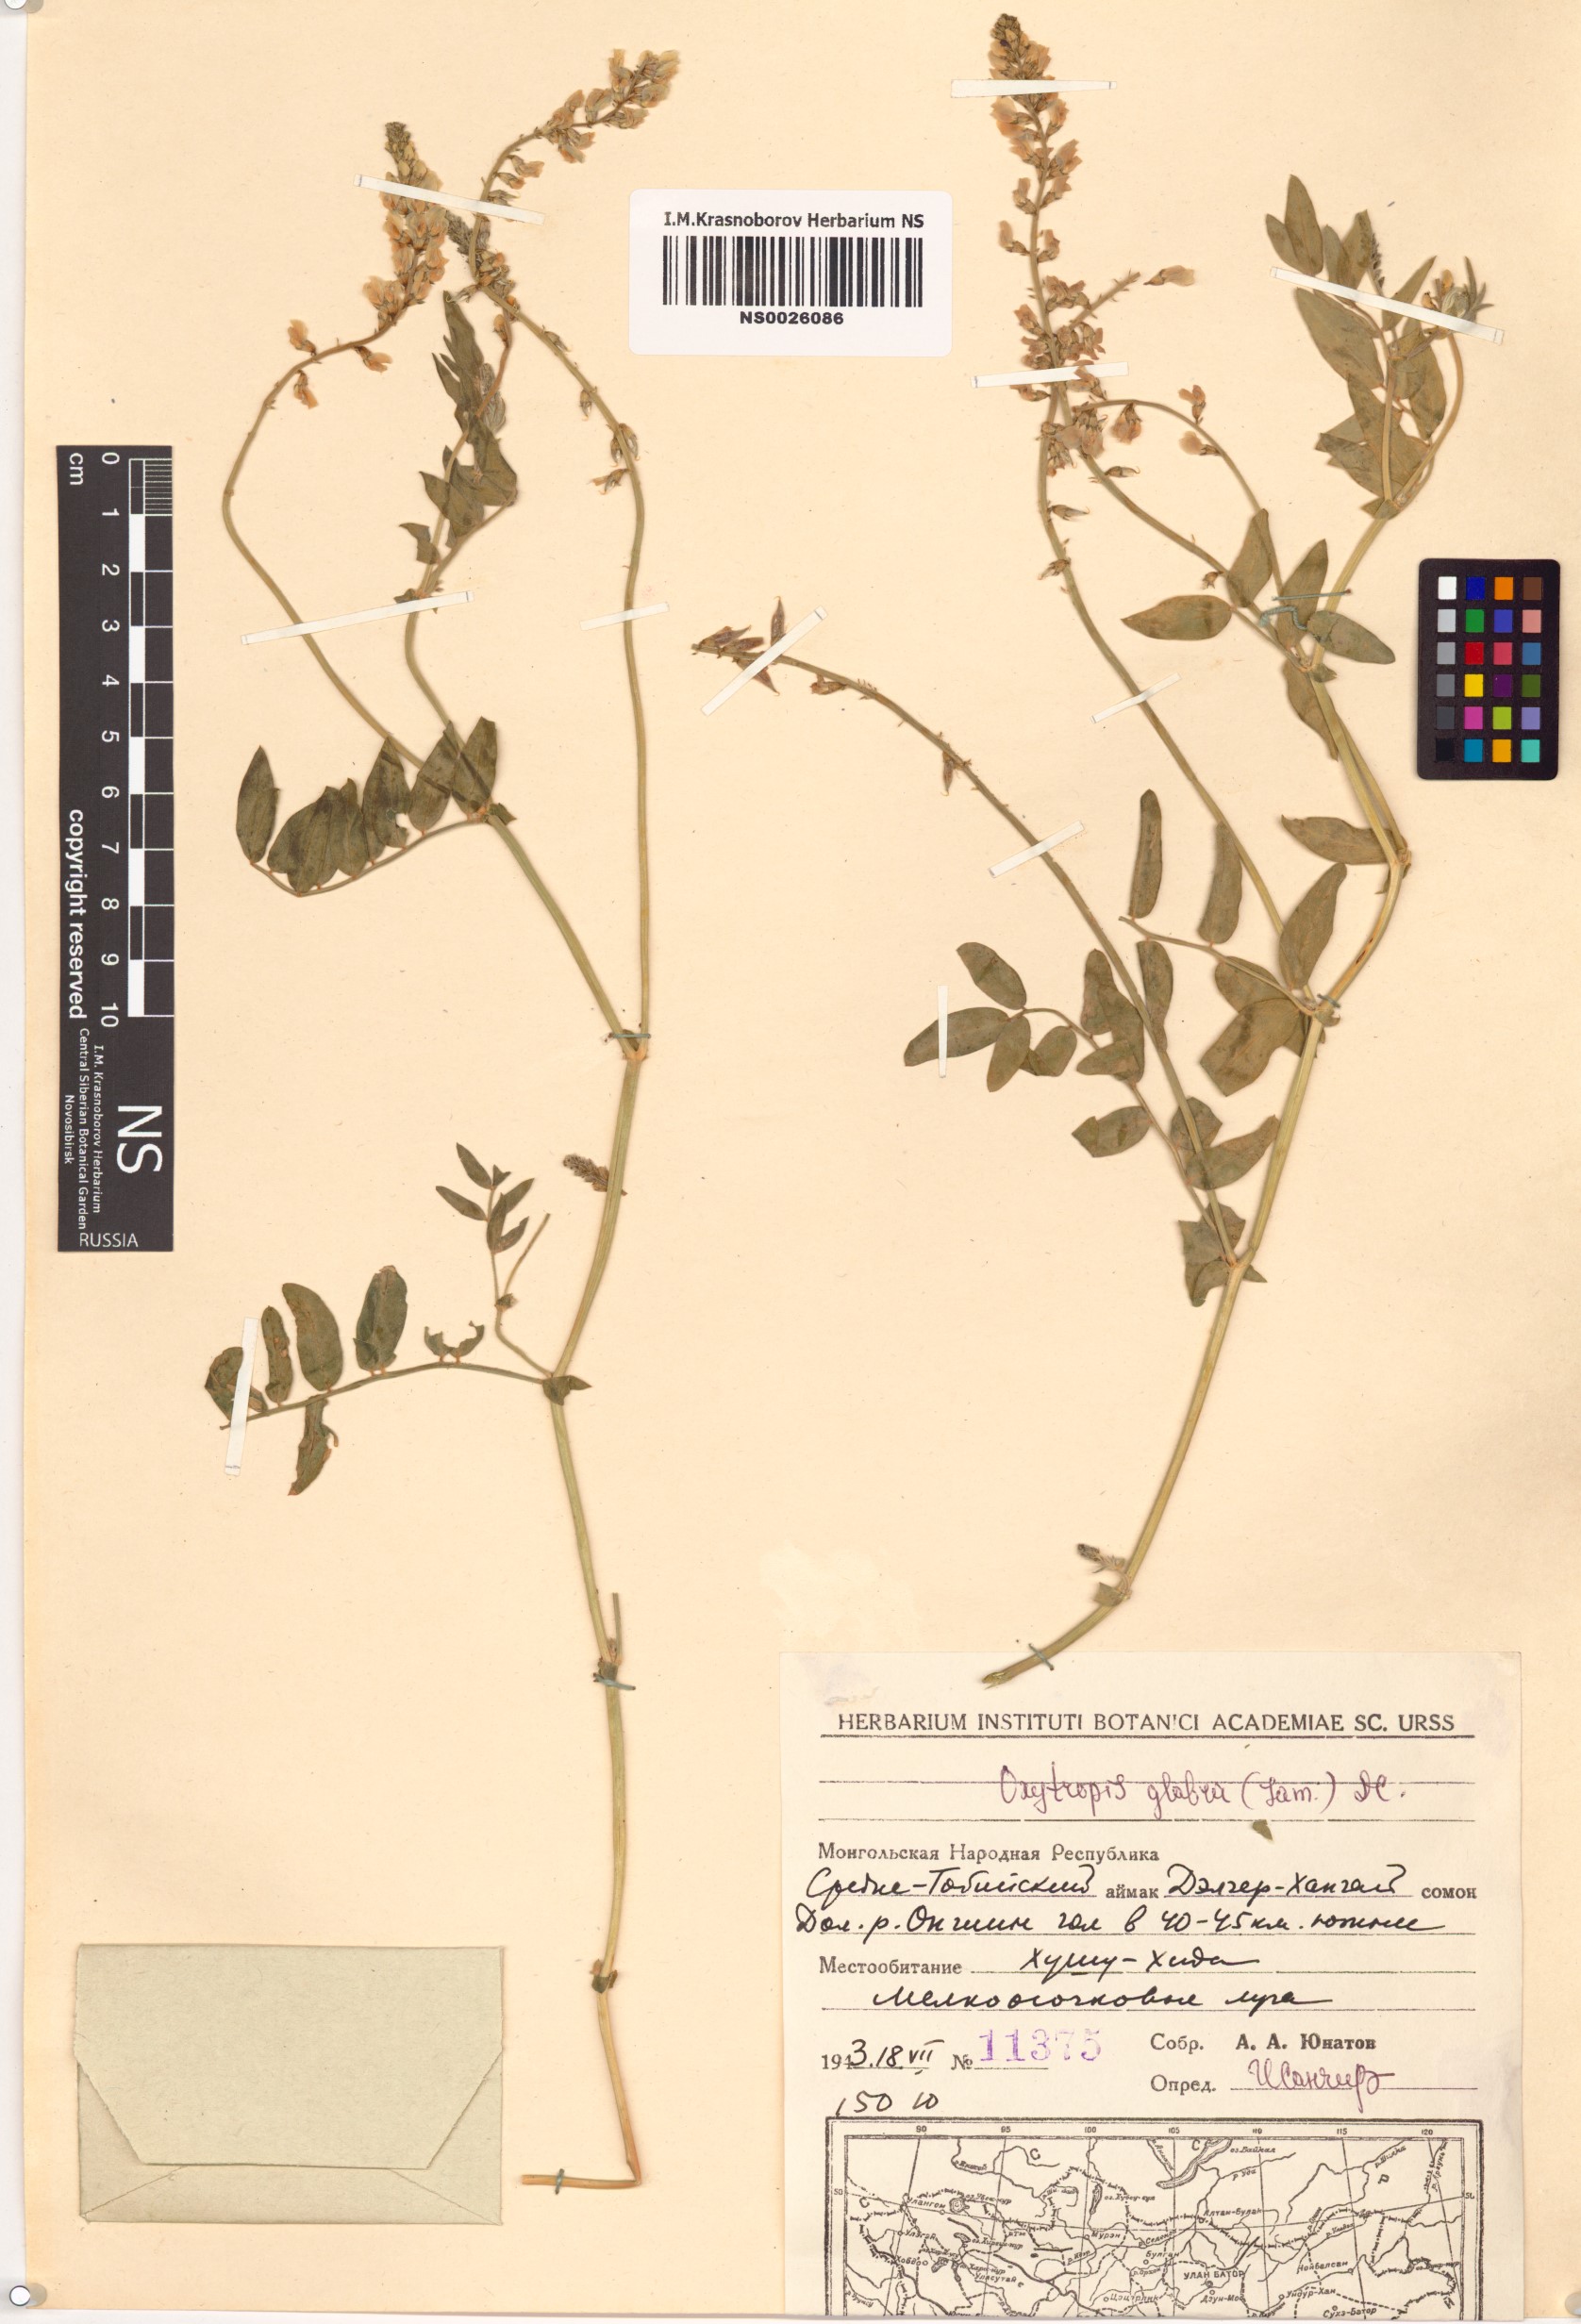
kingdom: Plantae
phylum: Tracheophyta
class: Magnoliopsida
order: Fabales
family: Fabaceae
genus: Oxytropis
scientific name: Oxytropis glabra
